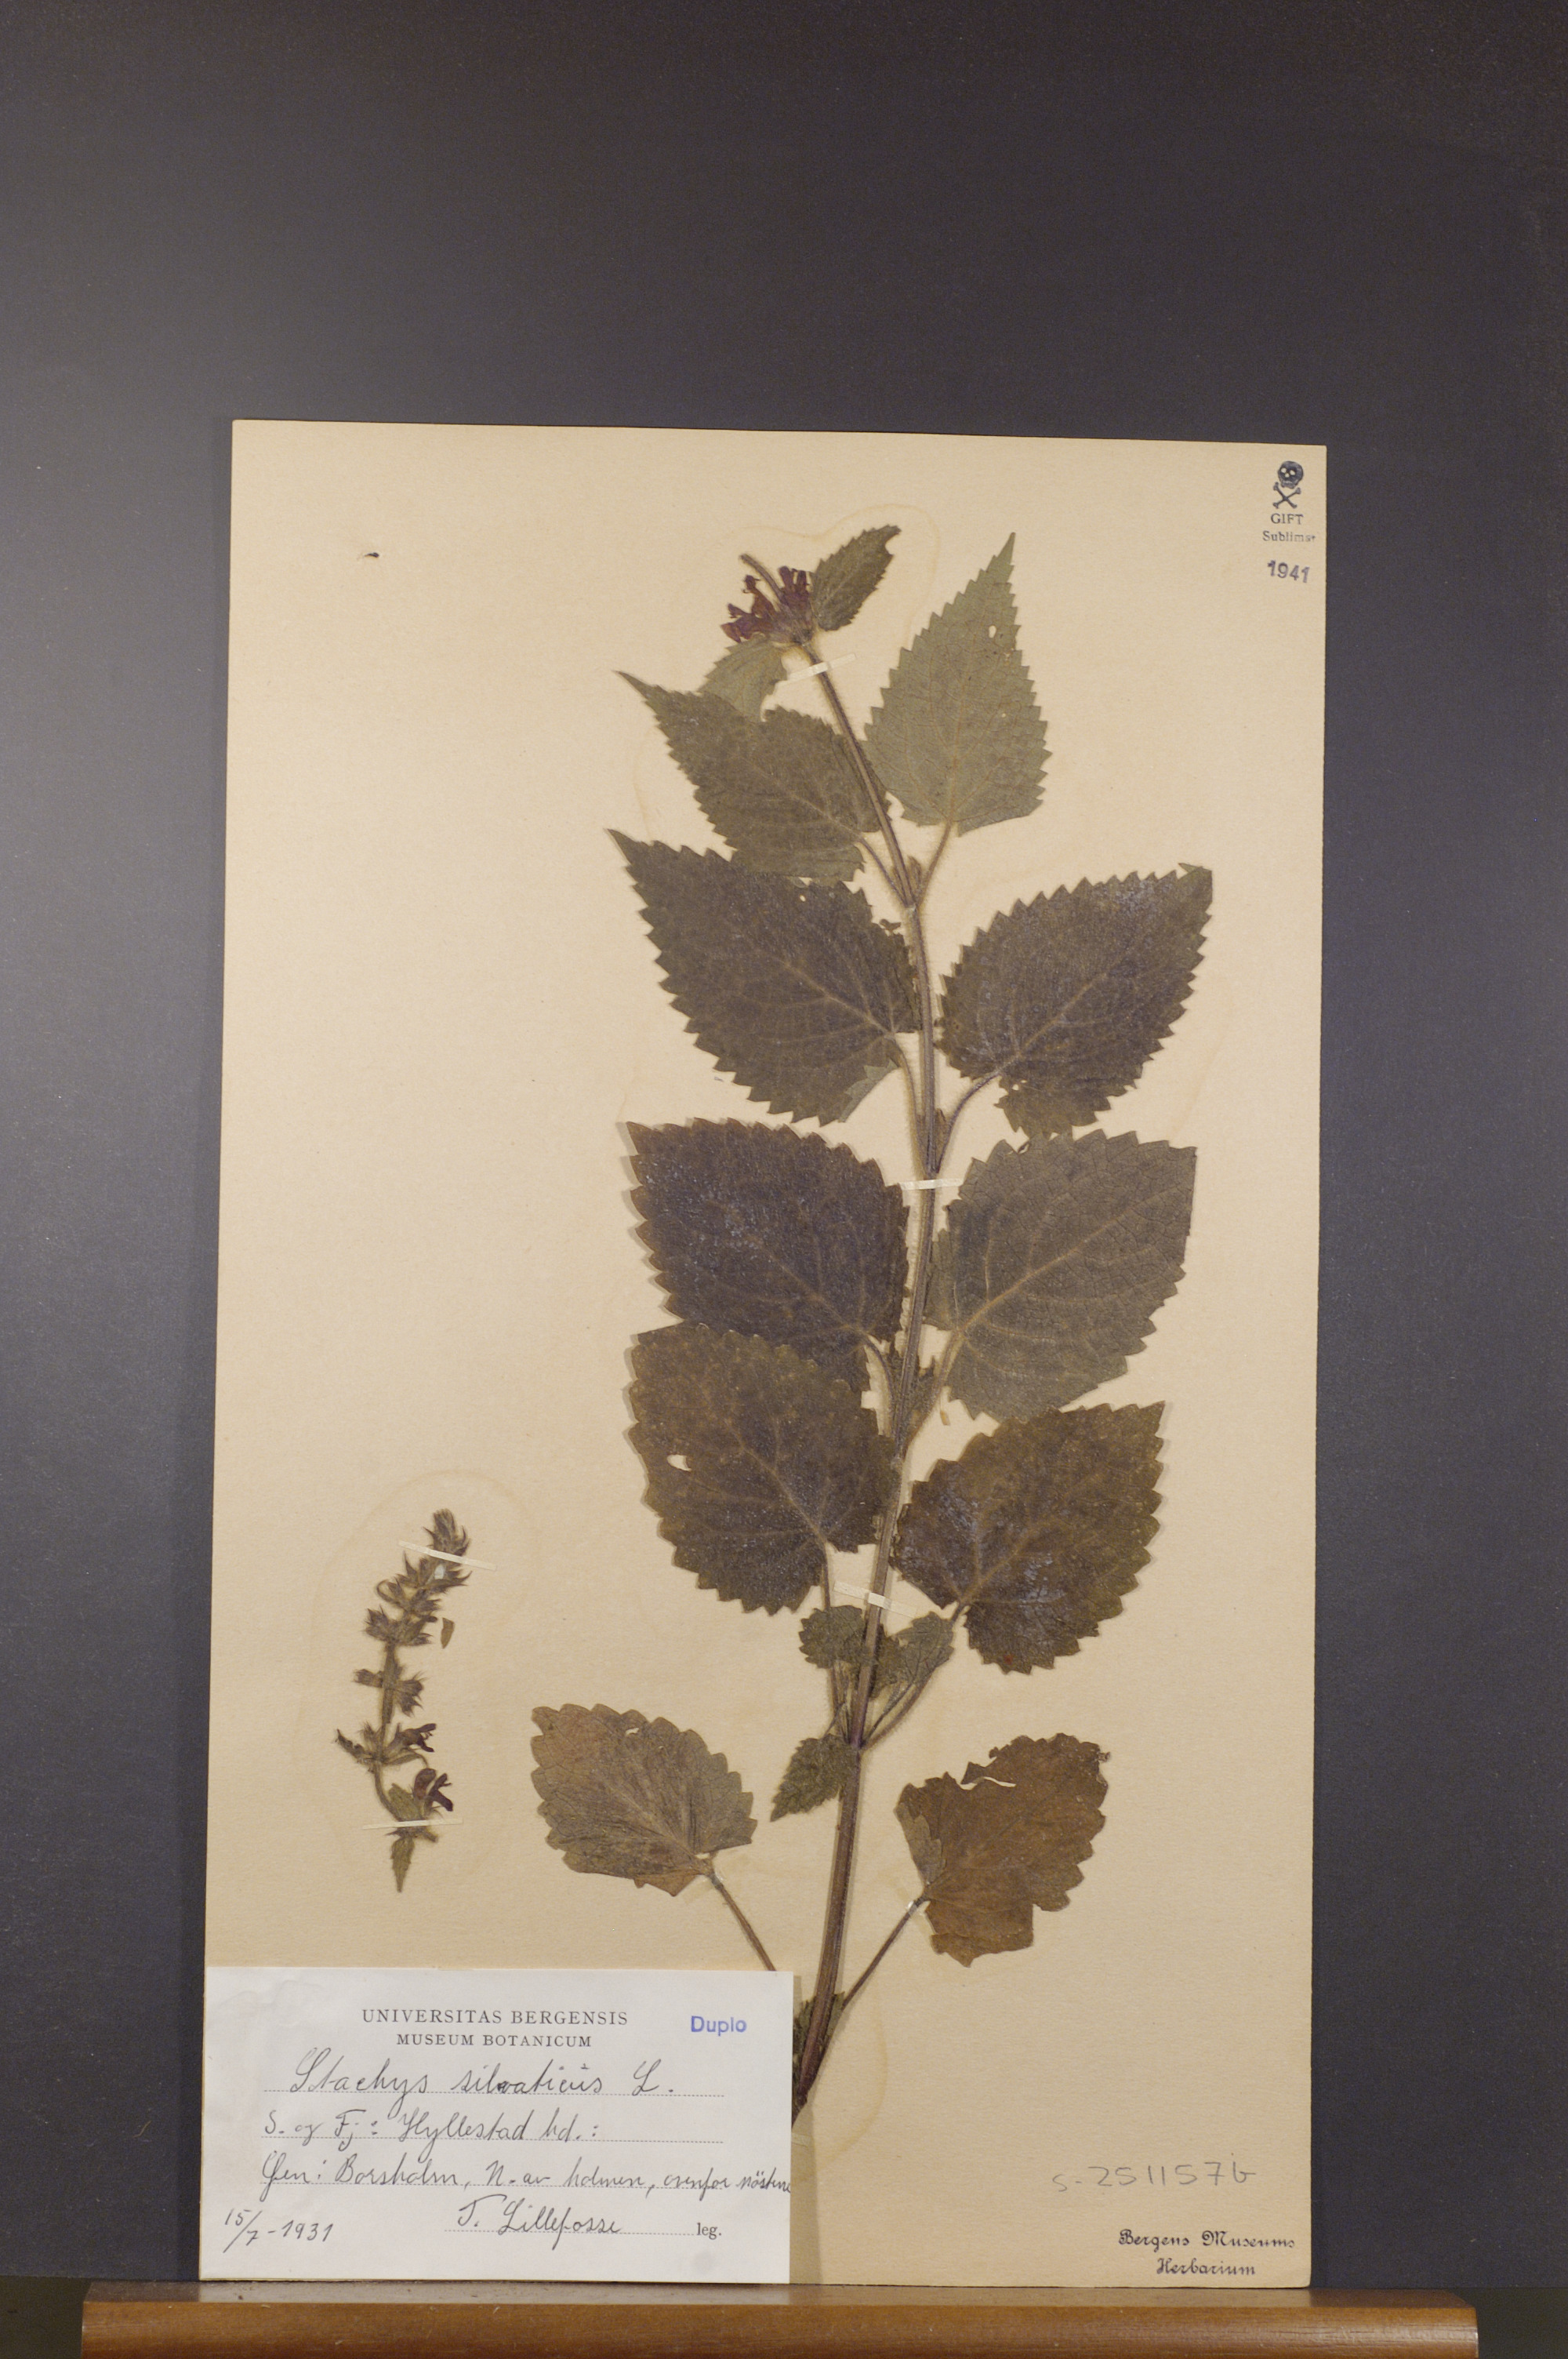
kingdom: Plantae
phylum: Tracheophyta
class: Magnoliopsida
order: Lamiales
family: Lamiaceae
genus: Stachys
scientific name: Stachys sylvatica
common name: Hedge woundwort
